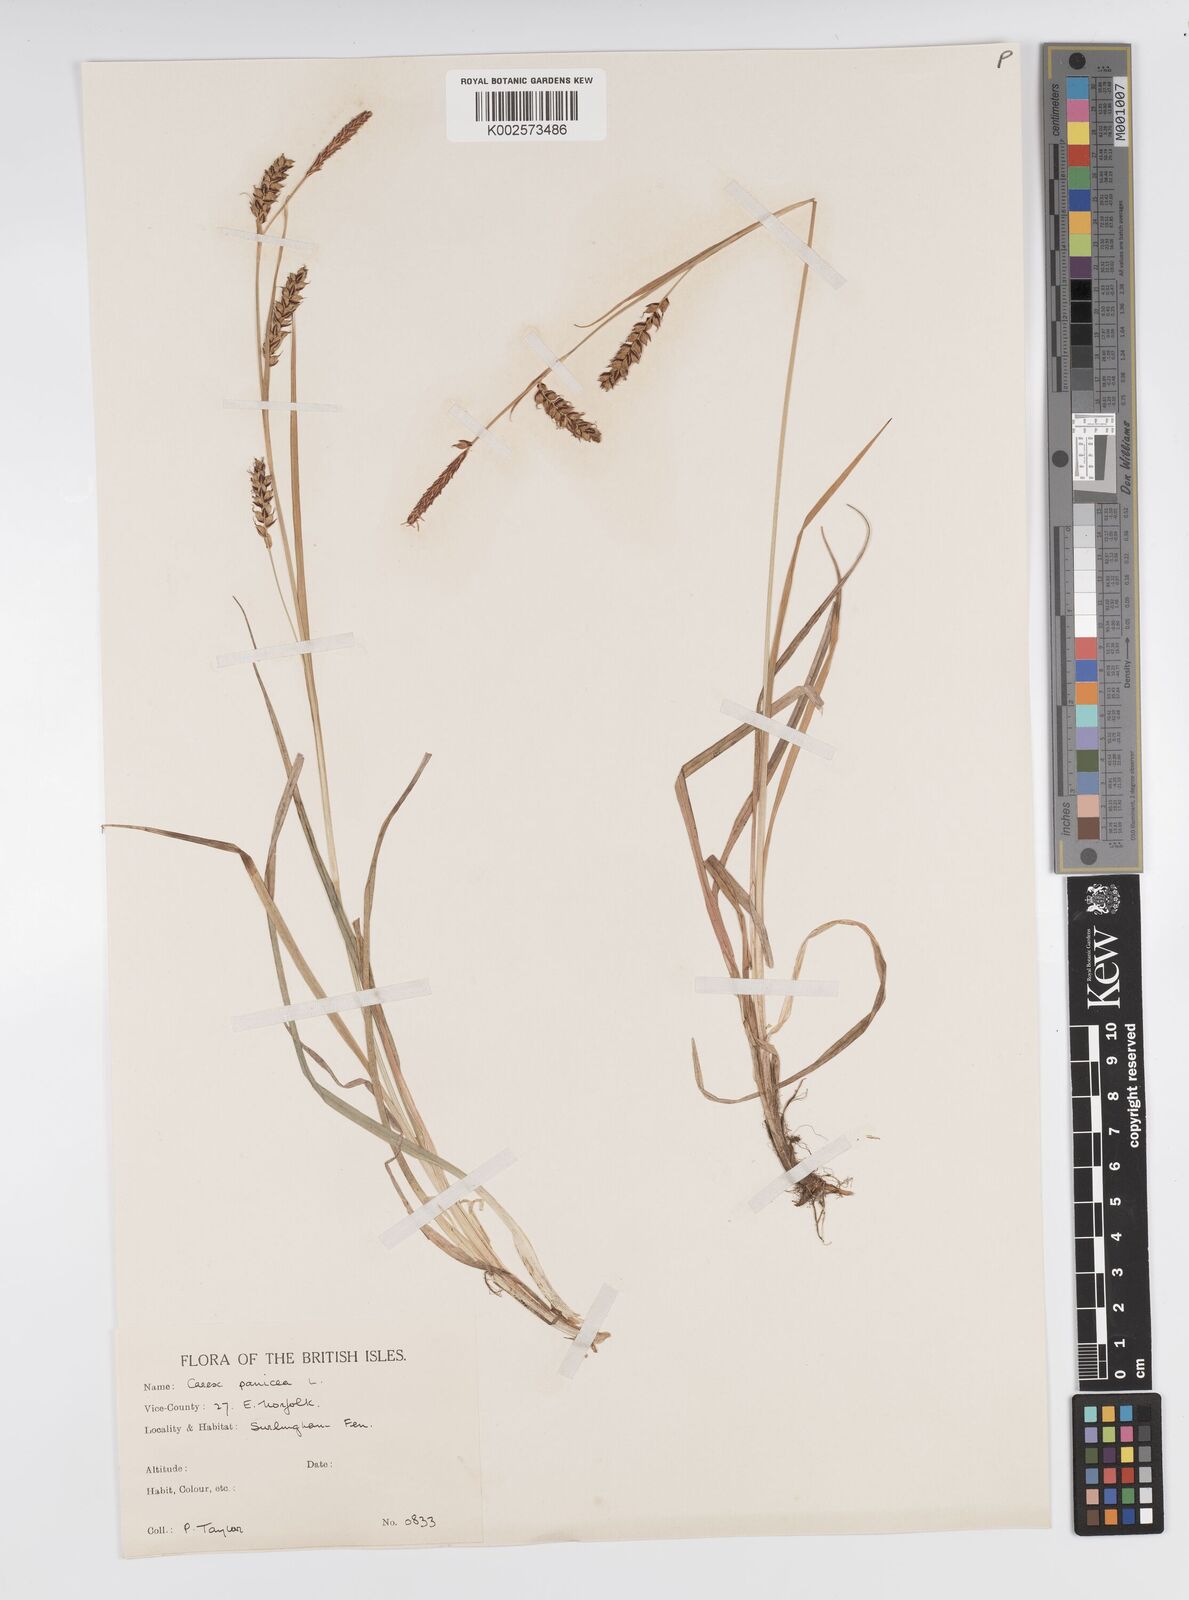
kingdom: Plantae
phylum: Tracheophyta
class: Liliopsida
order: Poales
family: Cyperaceae
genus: Carex
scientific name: Carex panicea
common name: Carnation sedge
